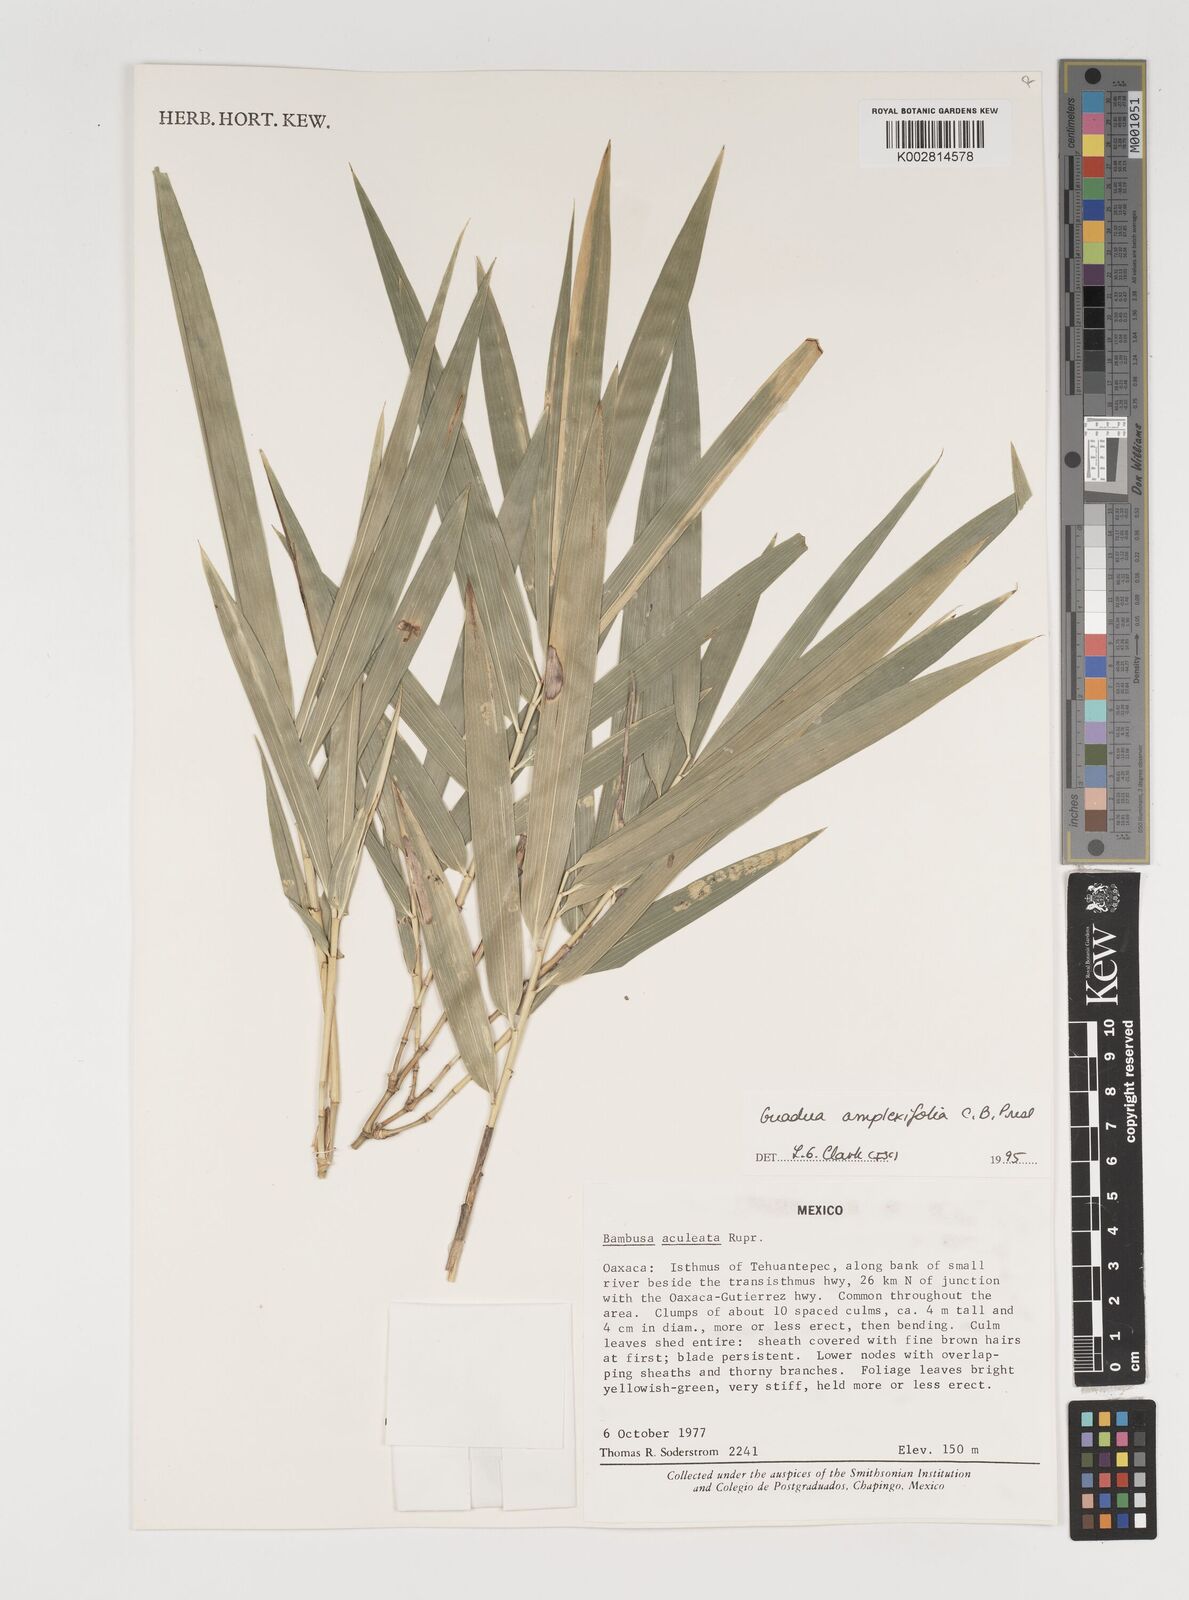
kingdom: Plantae
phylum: Tracheophyta
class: Liliopsida
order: Poales
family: Poaceae
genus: Guadua
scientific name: Guadua
